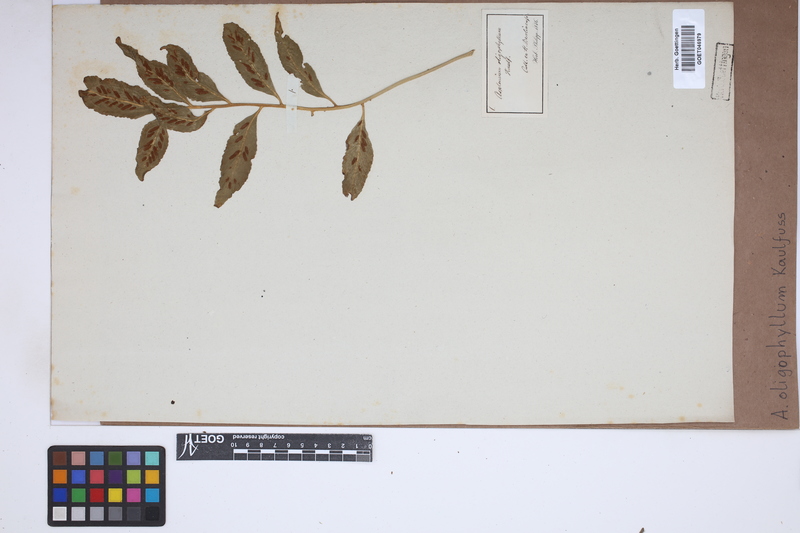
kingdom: Plantae
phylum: Tracheophyta
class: Polypodiopsida
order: Polypodiales
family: Aspleniaceae
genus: Asplenium
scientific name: Asplenium oligophyllum
